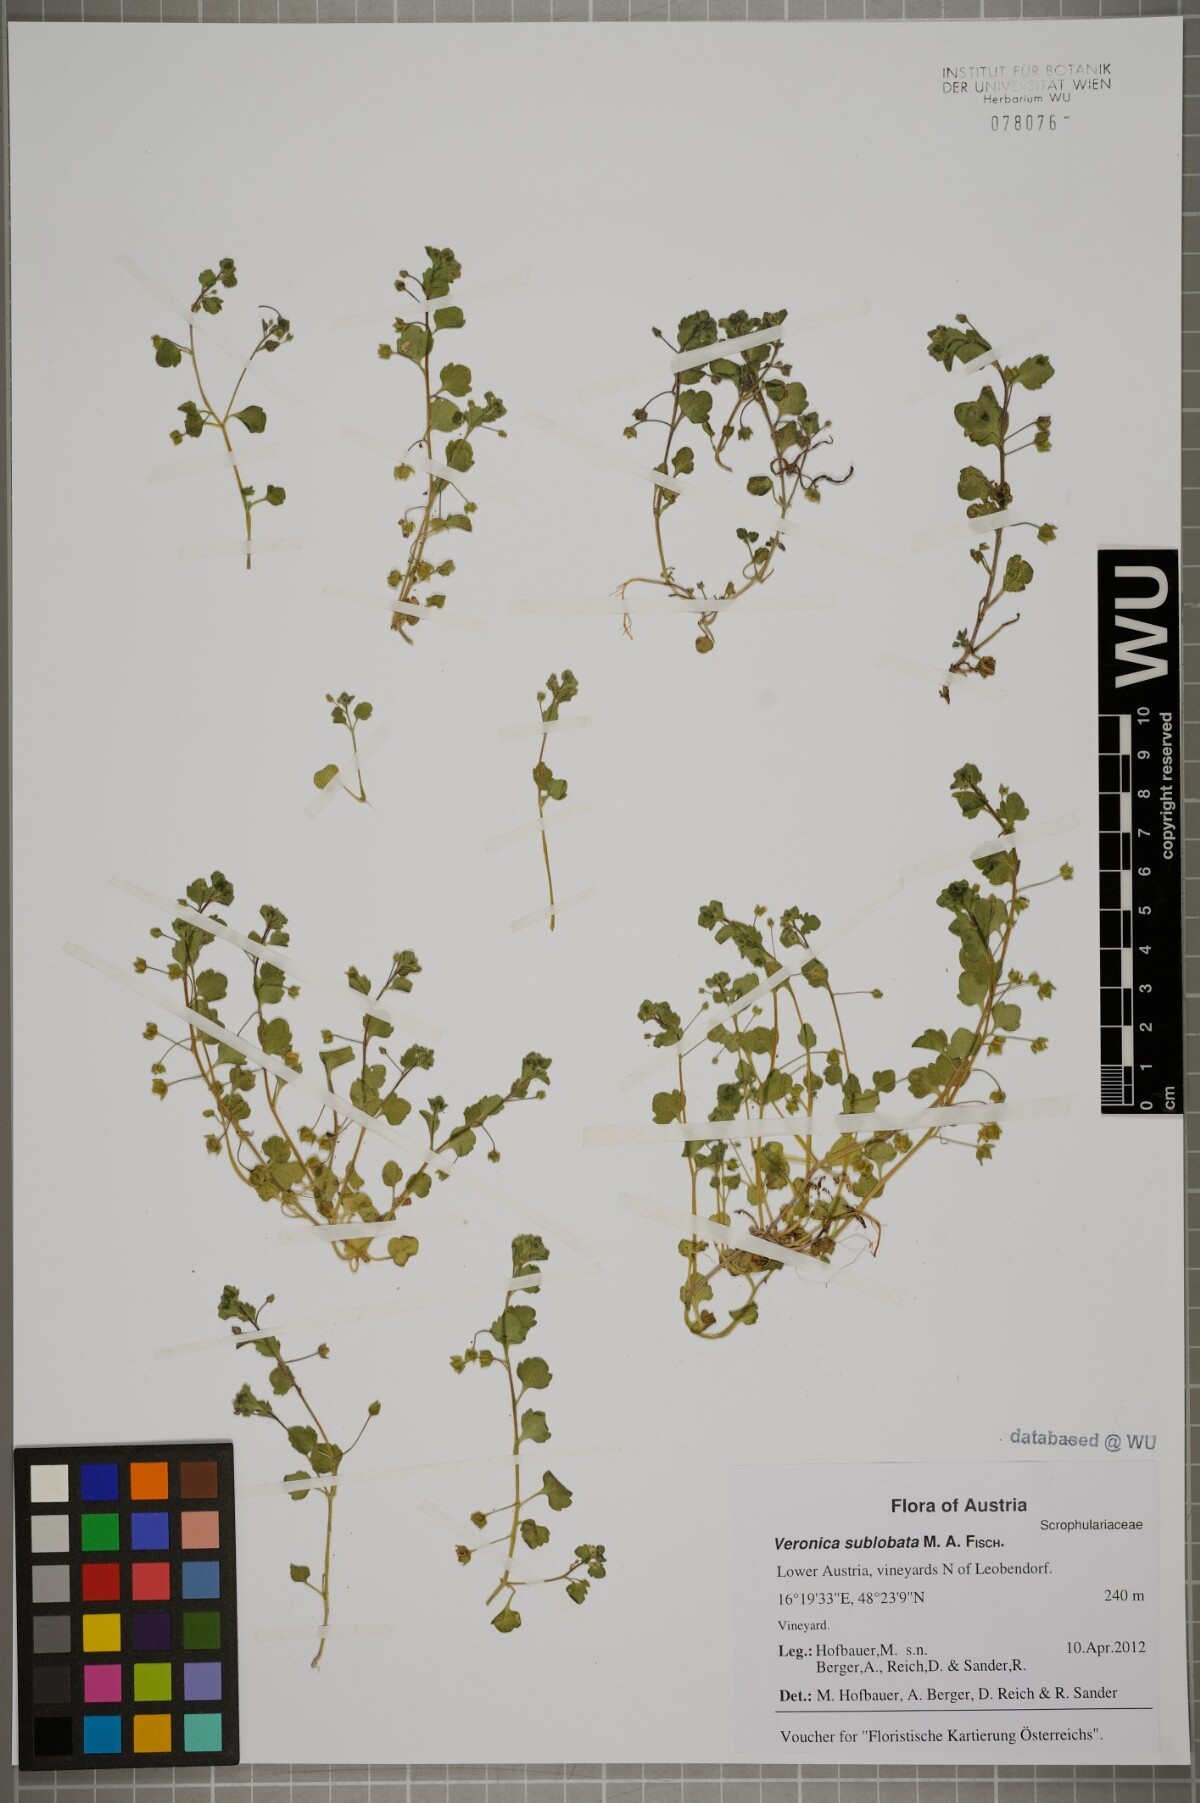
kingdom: Plantae
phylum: Tracheophyta
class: Magnoliopsida
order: Lamiales
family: Plantaginaceae
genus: Veronica
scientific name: Veronica sublobata
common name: False ivy-leaved speedwell
